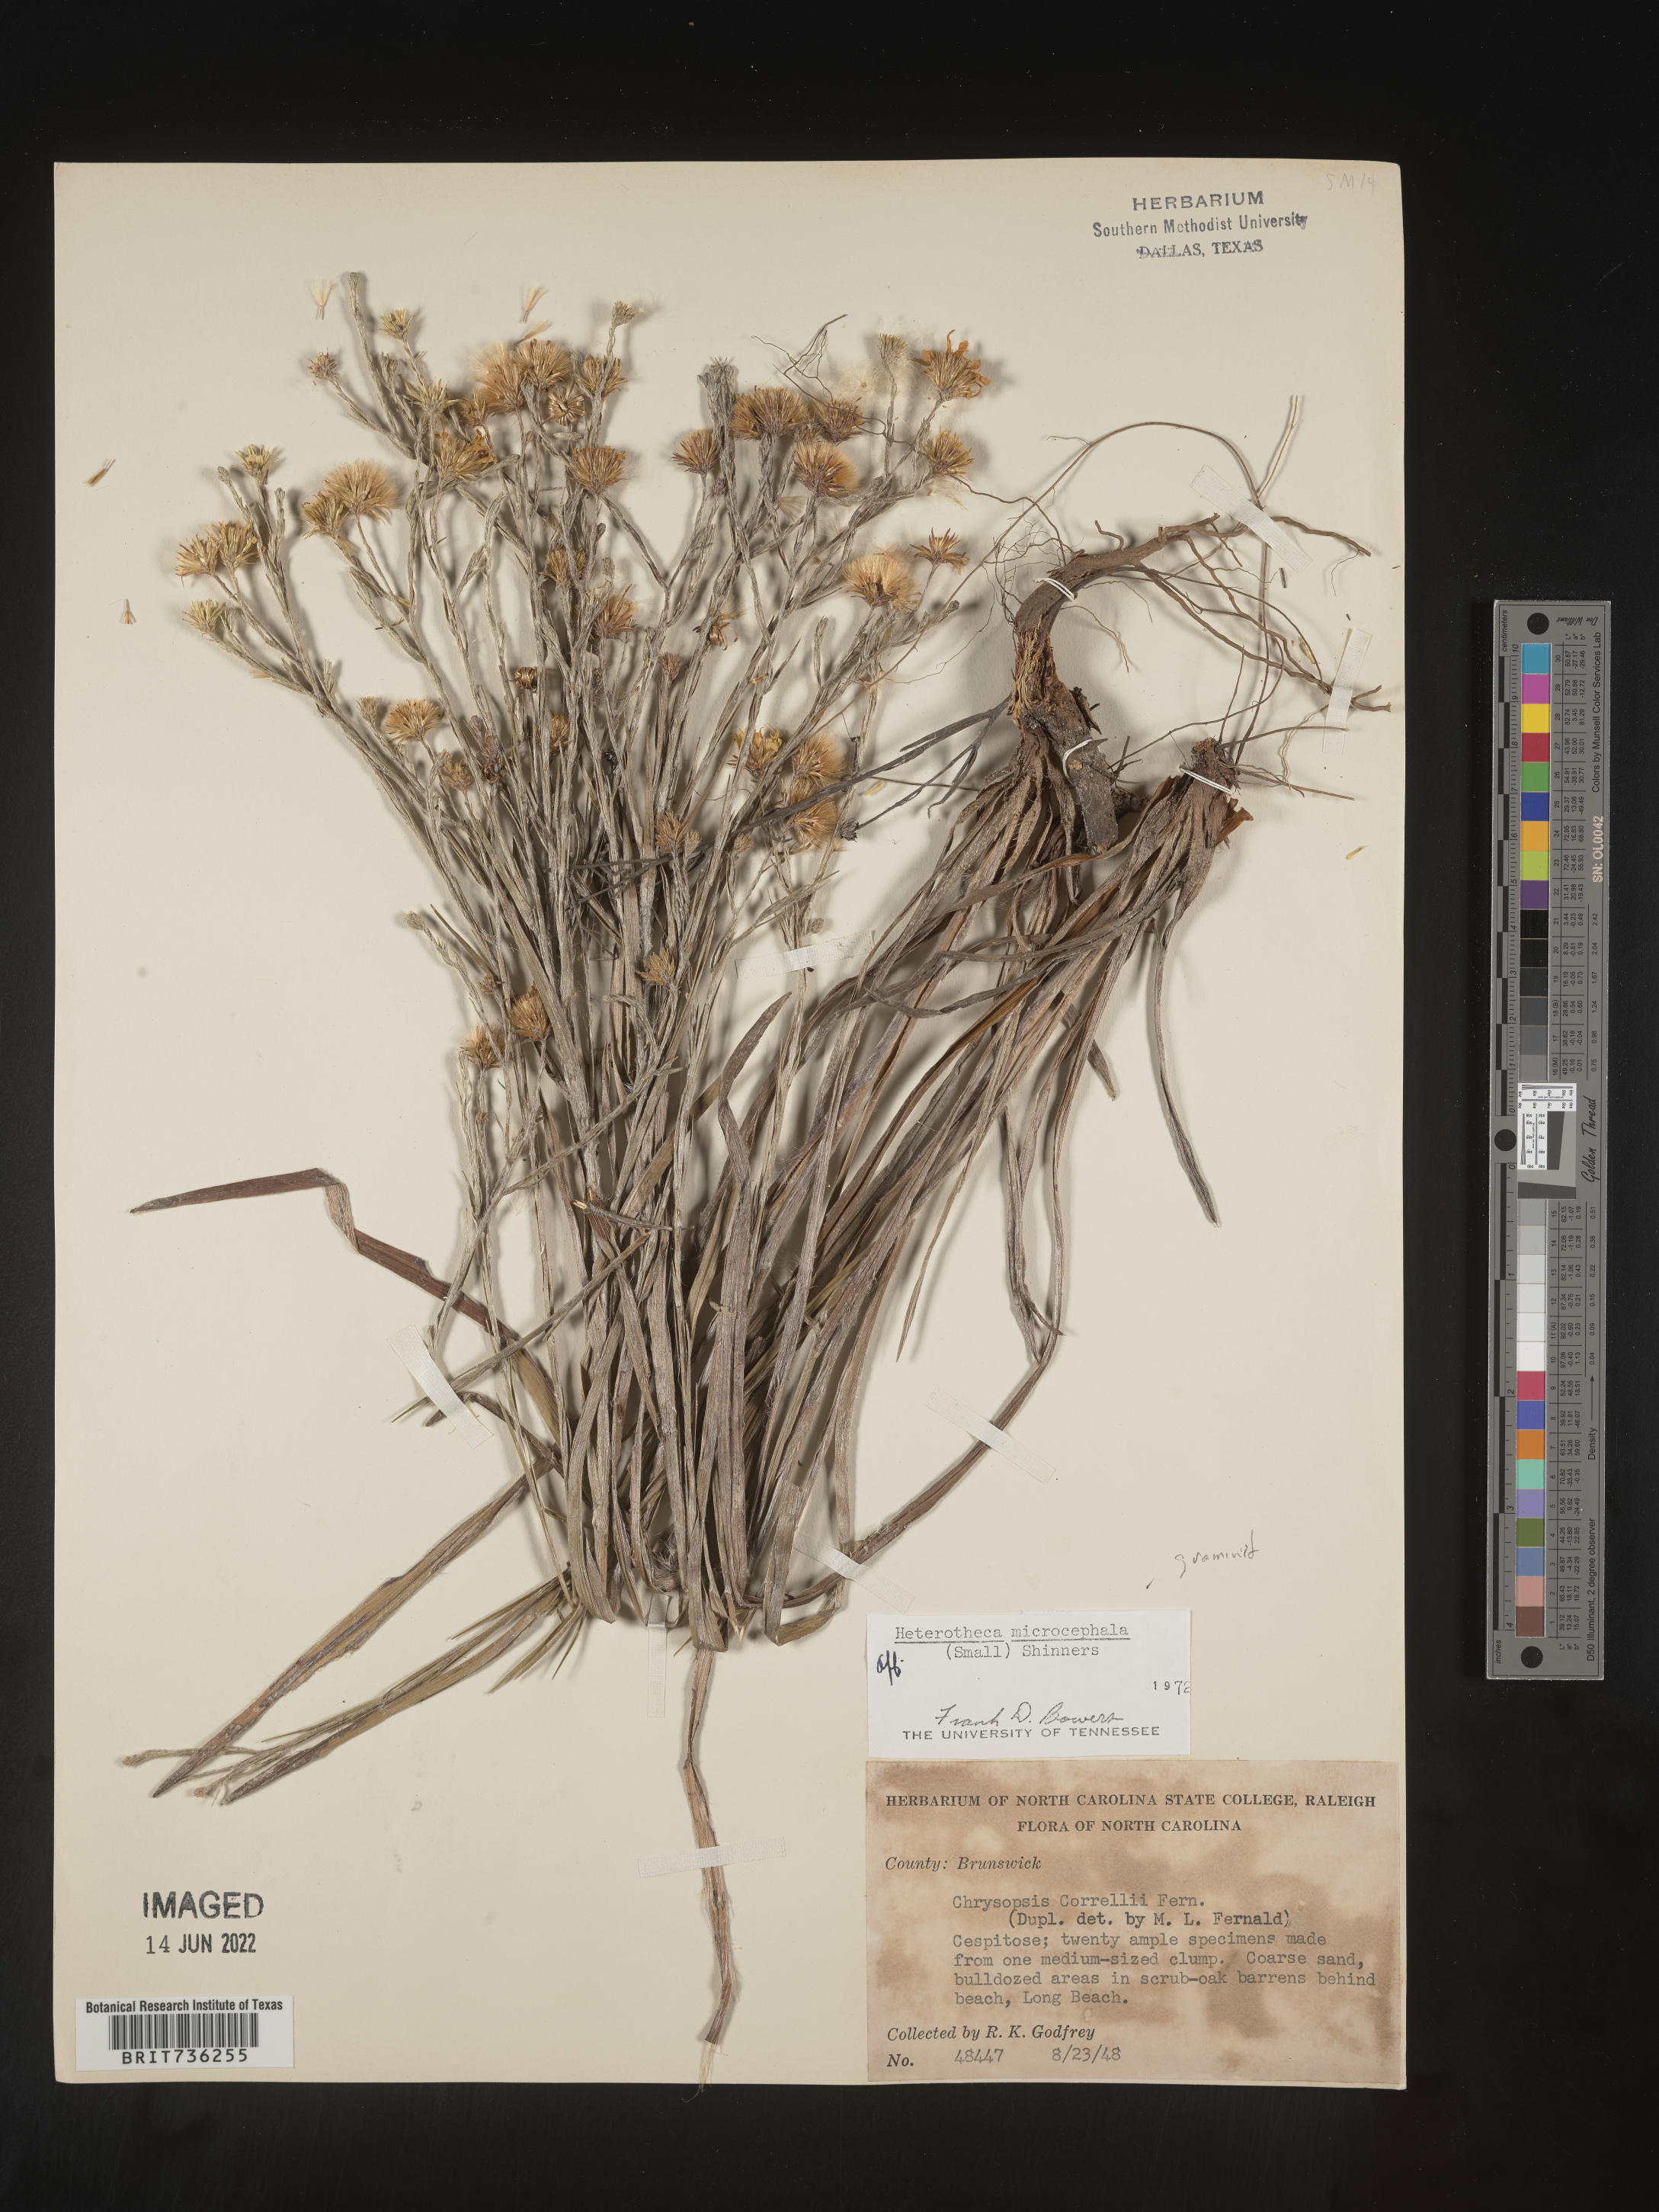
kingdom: Plantae
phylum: Tracheophyta
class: Magnoliopsida
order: Asterales
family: Asteraceae
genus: Pityopsis
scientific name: Pityopsis graminifolia
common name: Grass-leaf golden-aster
